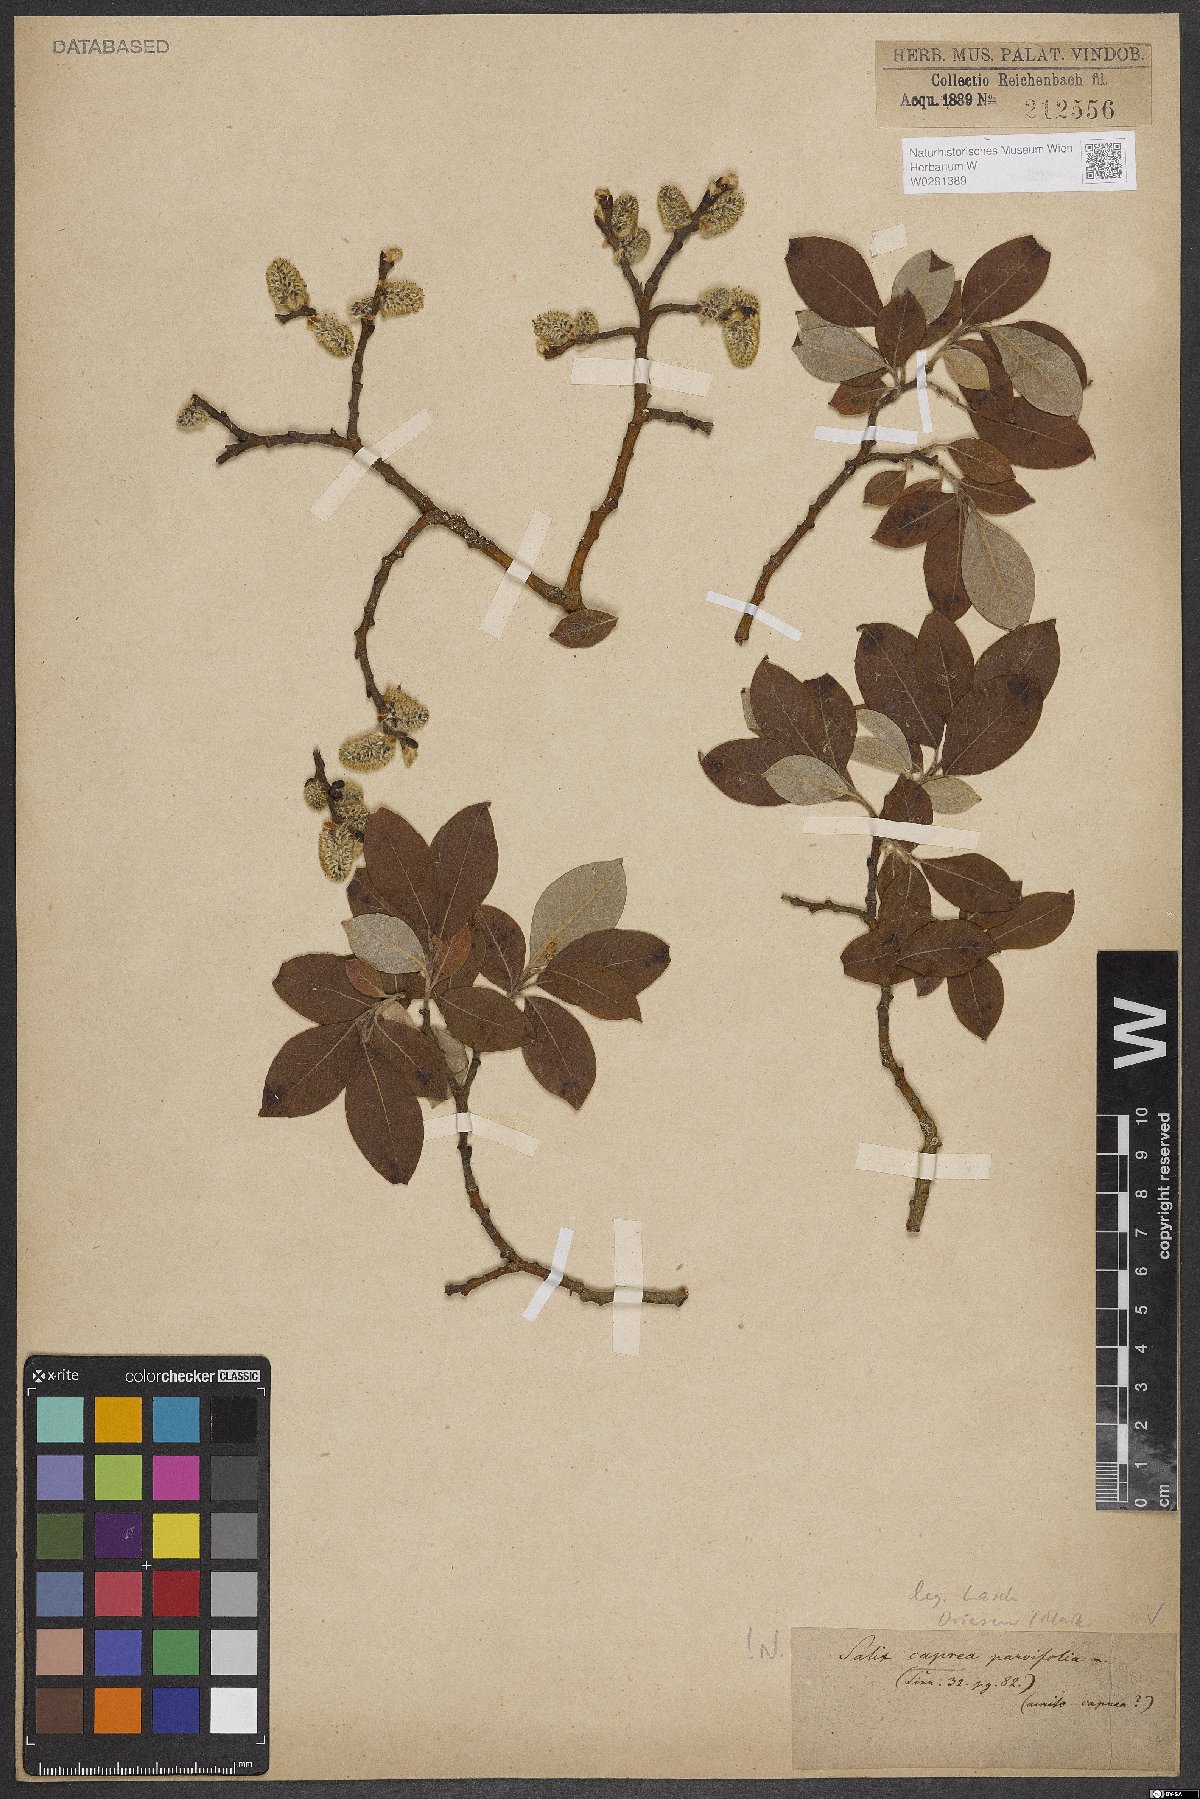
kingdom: Plantae
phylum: Tracheophyta
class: Magnoliopsida
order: Malpighiales
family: Salicaceae
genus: Salix
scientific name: Salix caprea
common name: Goat willow
